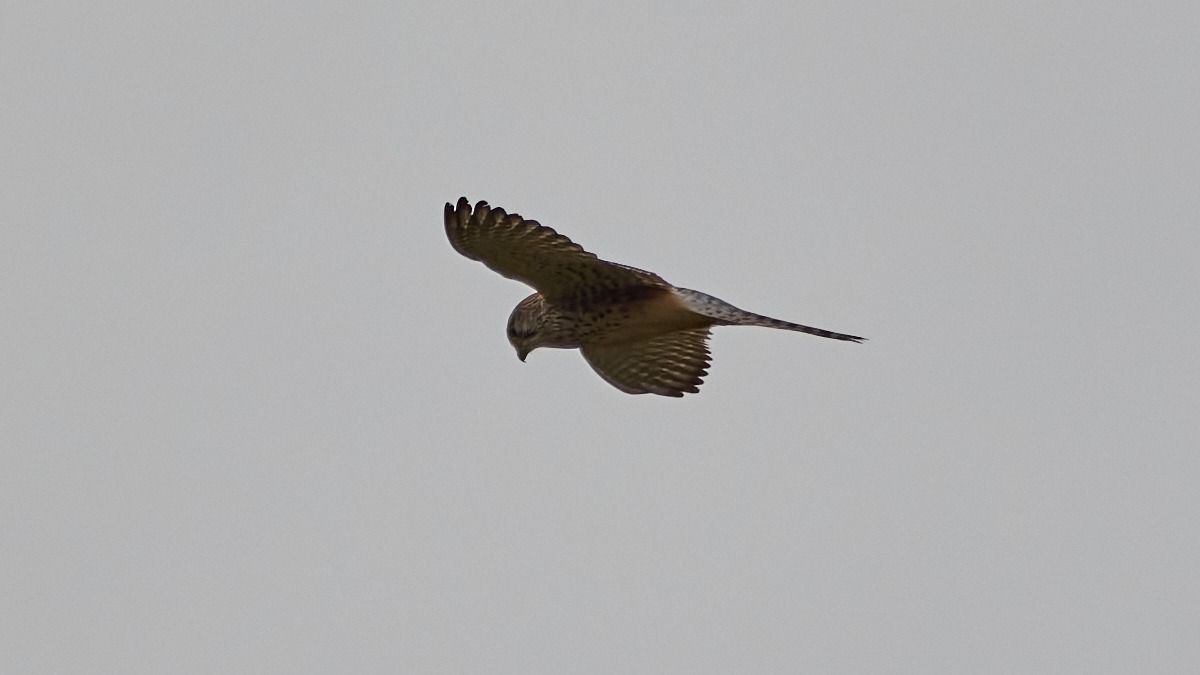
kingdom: Animalia
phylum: Chordata
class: Aves
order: Falconiformes
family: Falconidae
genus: Falco
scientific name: Falco tinnunculus
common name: Tårnfalk
